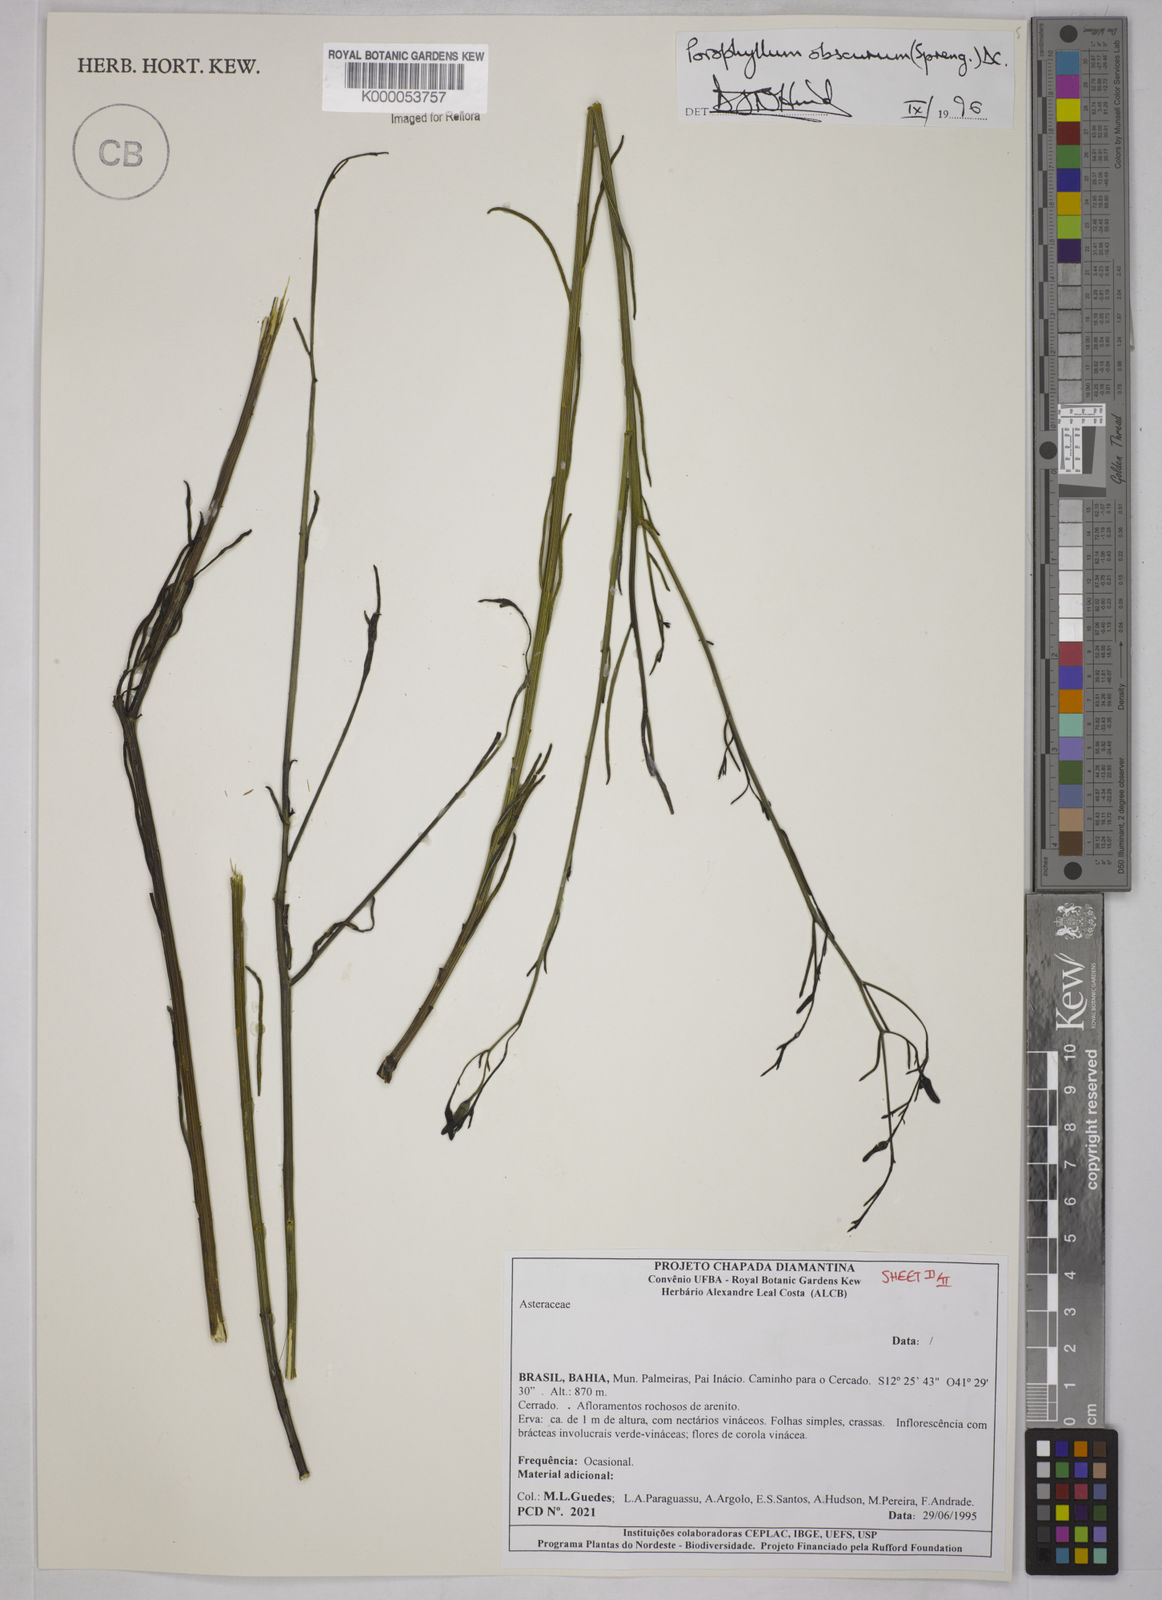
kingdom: Plantae
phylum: Tracheophyta
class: Magnoliopsida
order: Asterales
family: Asteraceae
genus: Porophyllum
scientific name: Porophyllum obscurum
